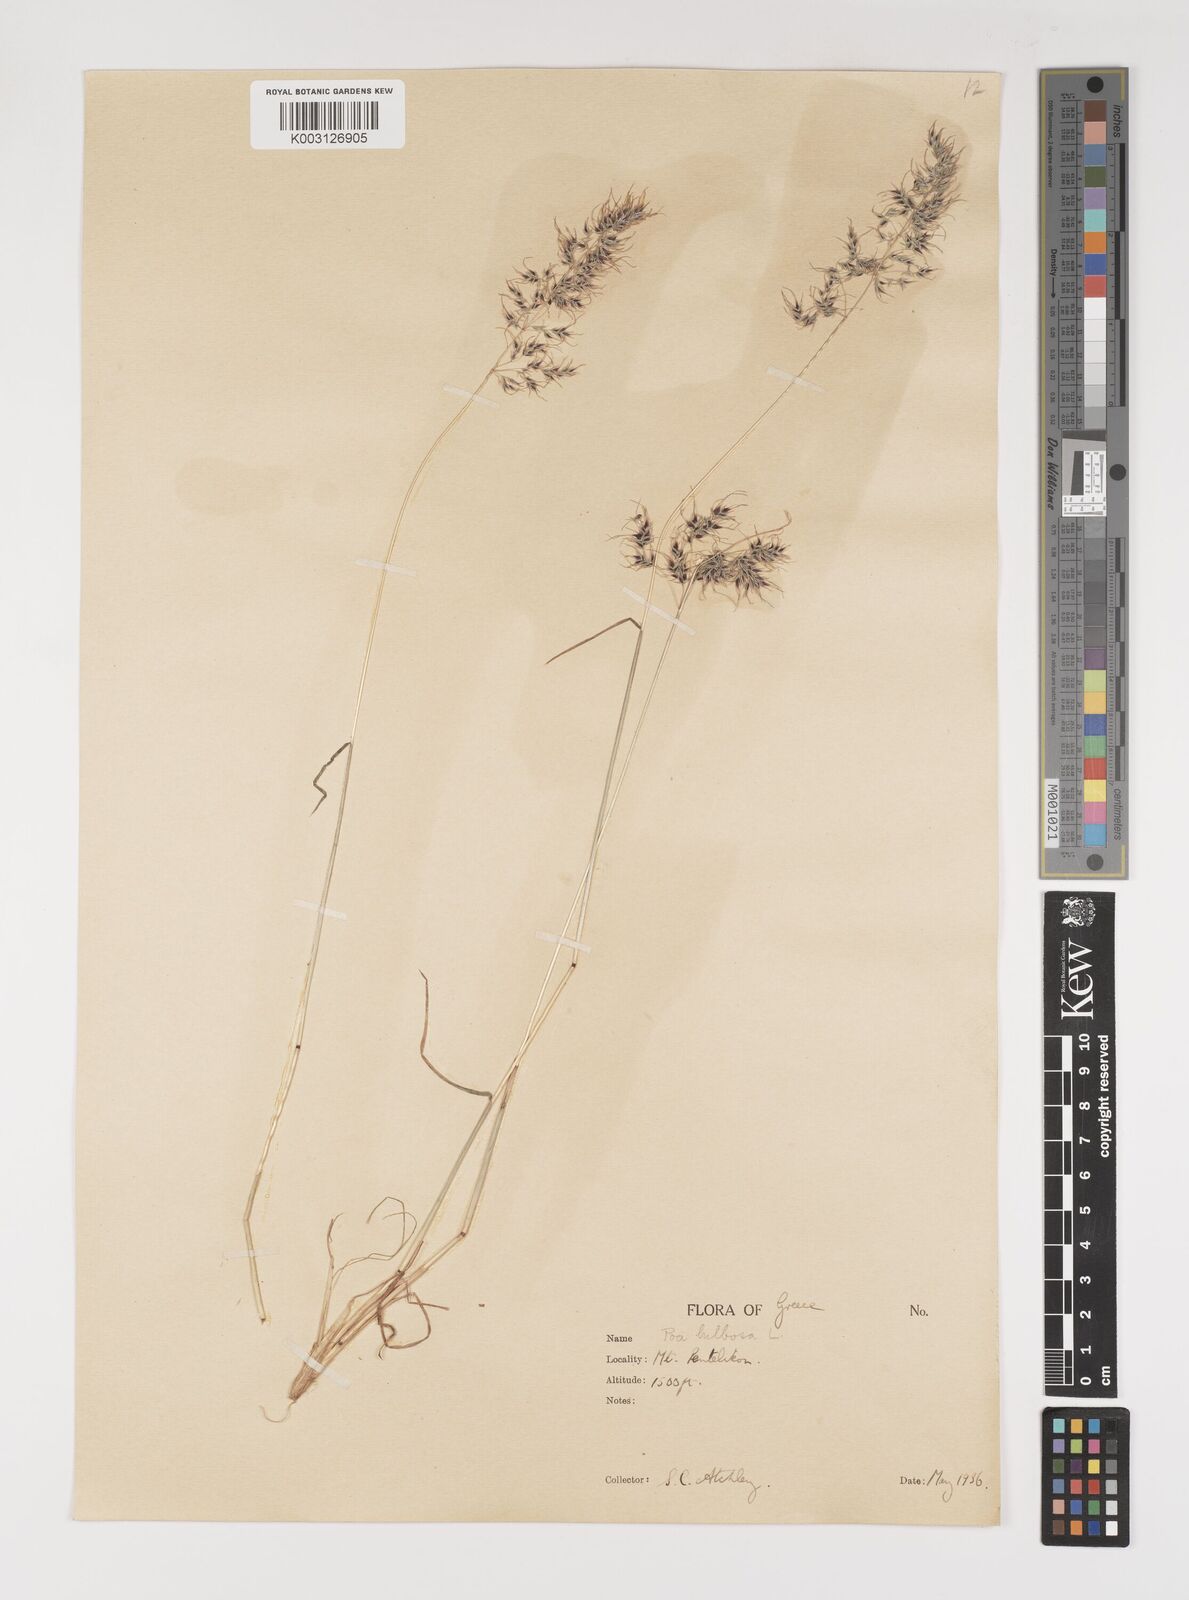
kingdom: Plantae
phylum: Tracheophyta
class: Liliopsida
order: Poales
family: Poaceae
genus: Poa
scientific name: Poa bulbosa
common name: Bulbous bluegrass
